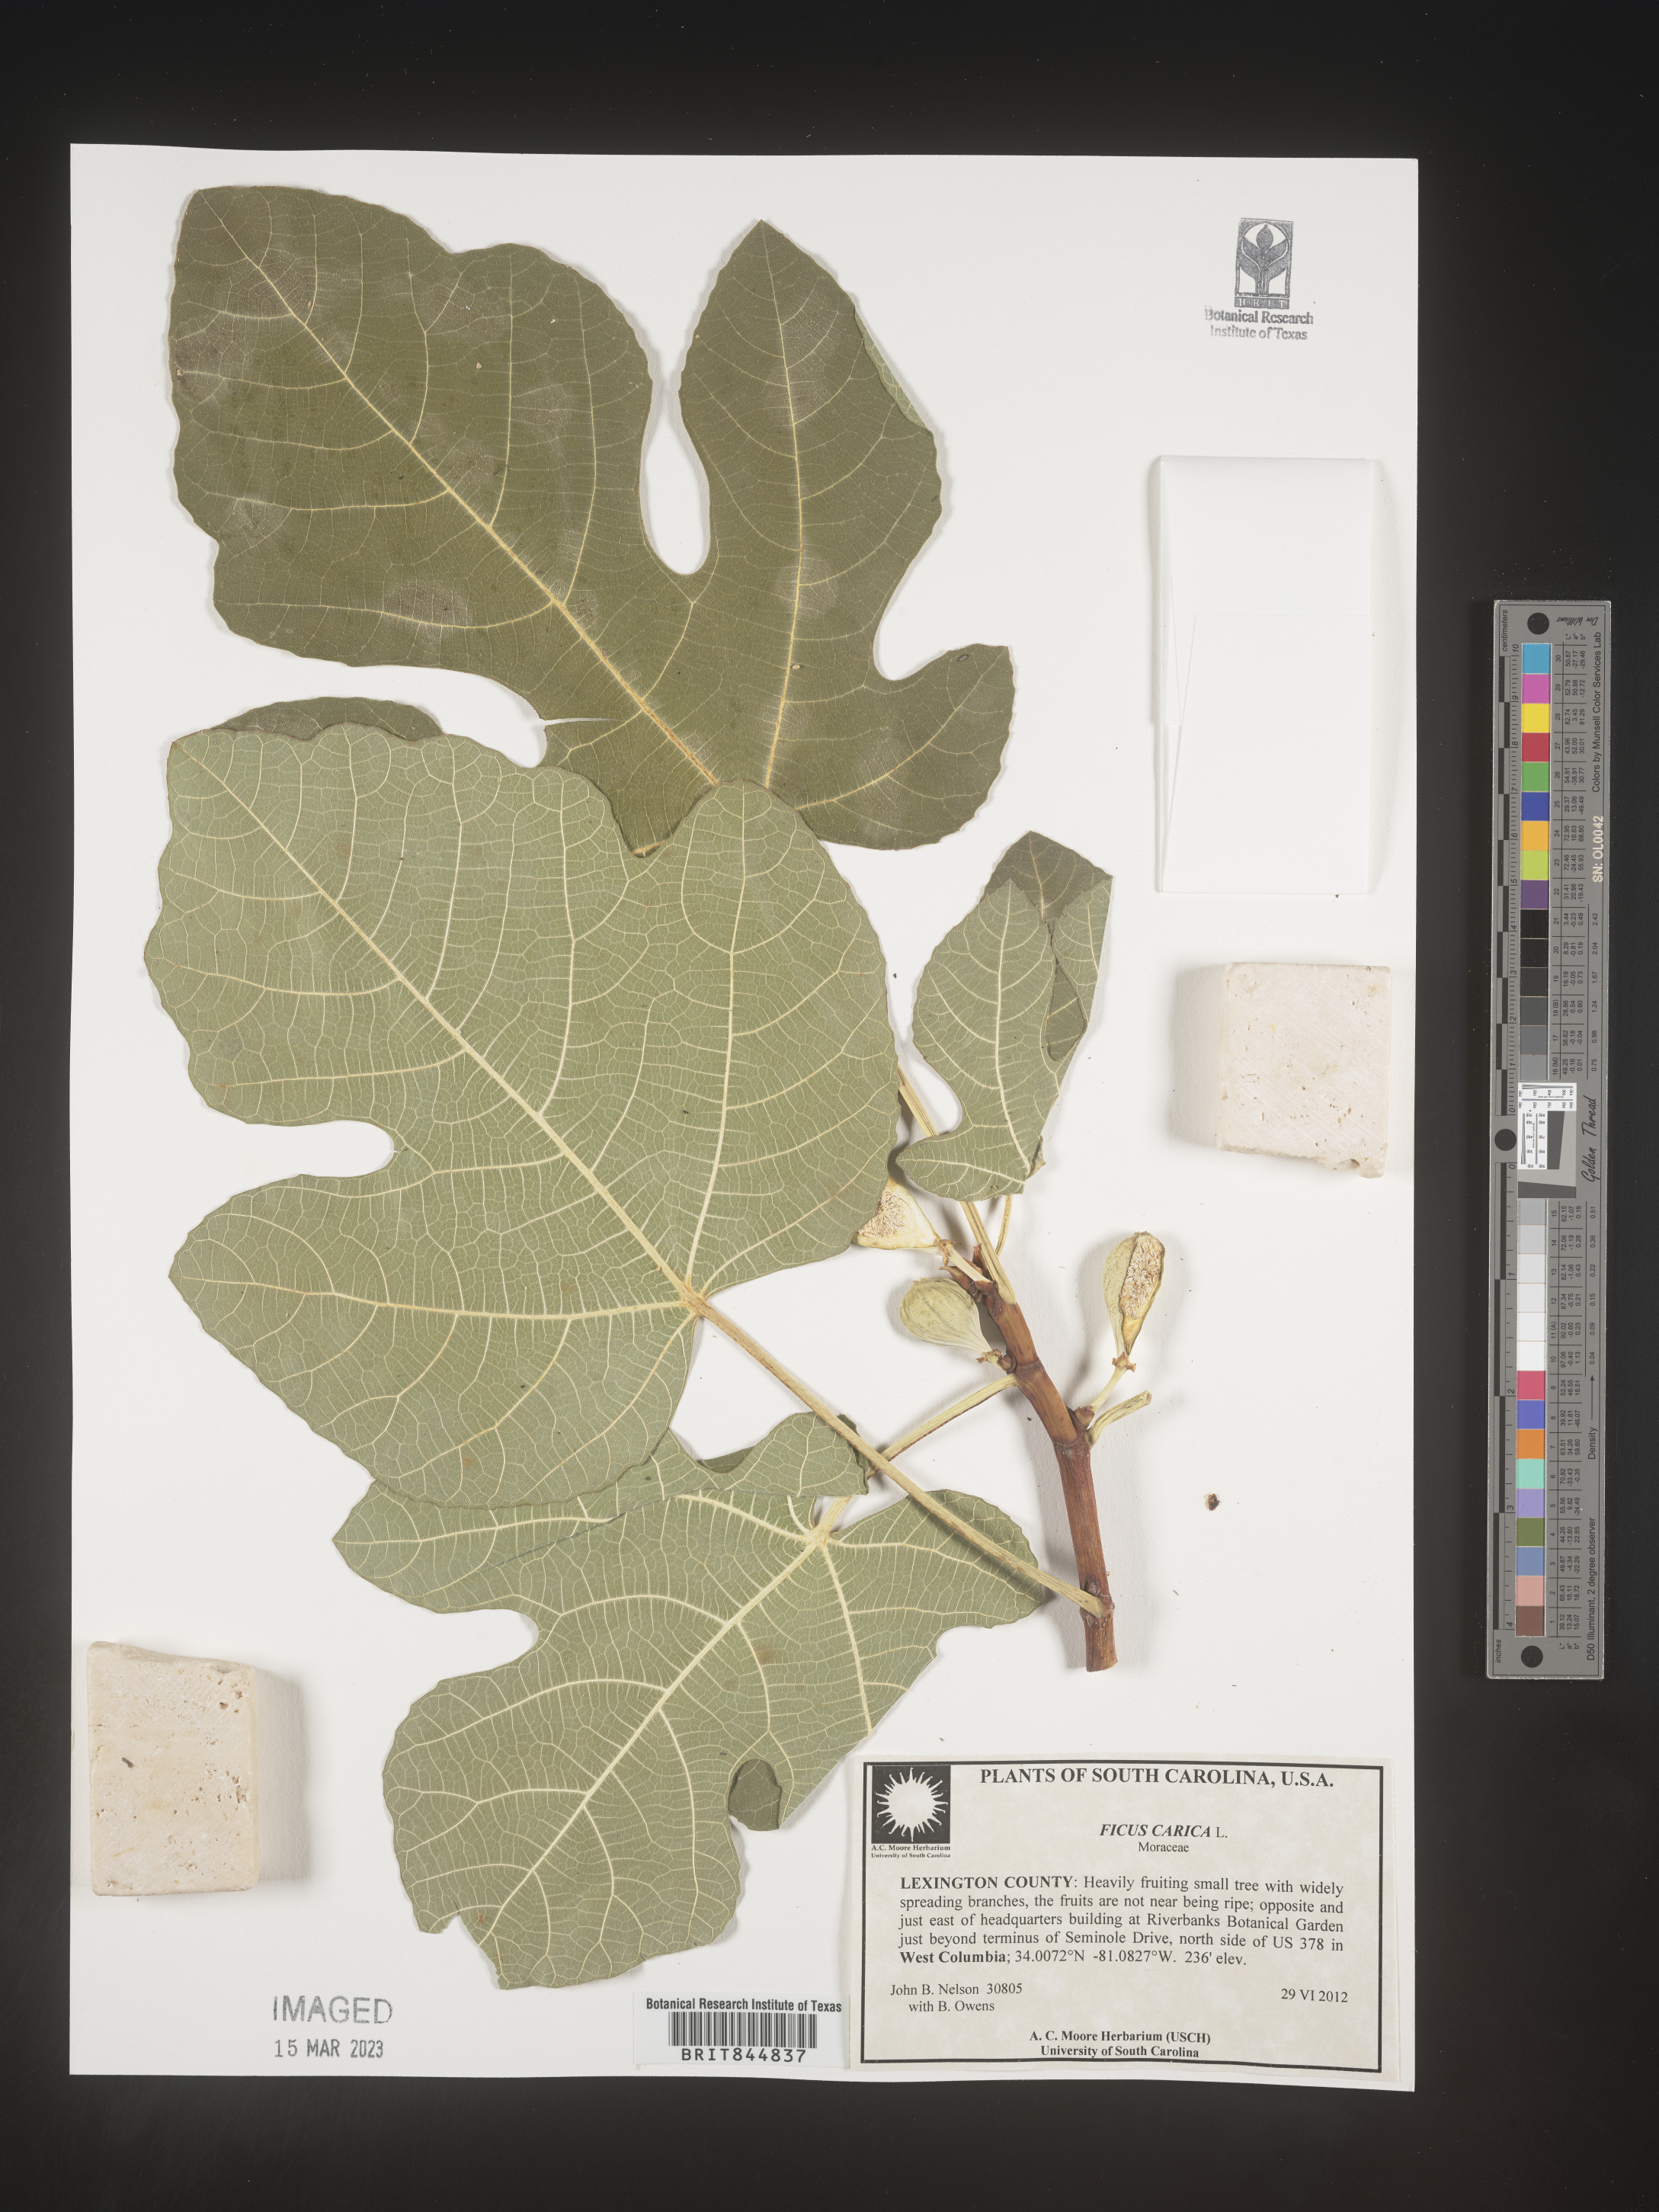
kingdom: Plantae
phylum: Tracheophyta
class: Magnoliopsida
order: Rosales
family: Moraceae
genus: Ficus
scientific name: Ficus
